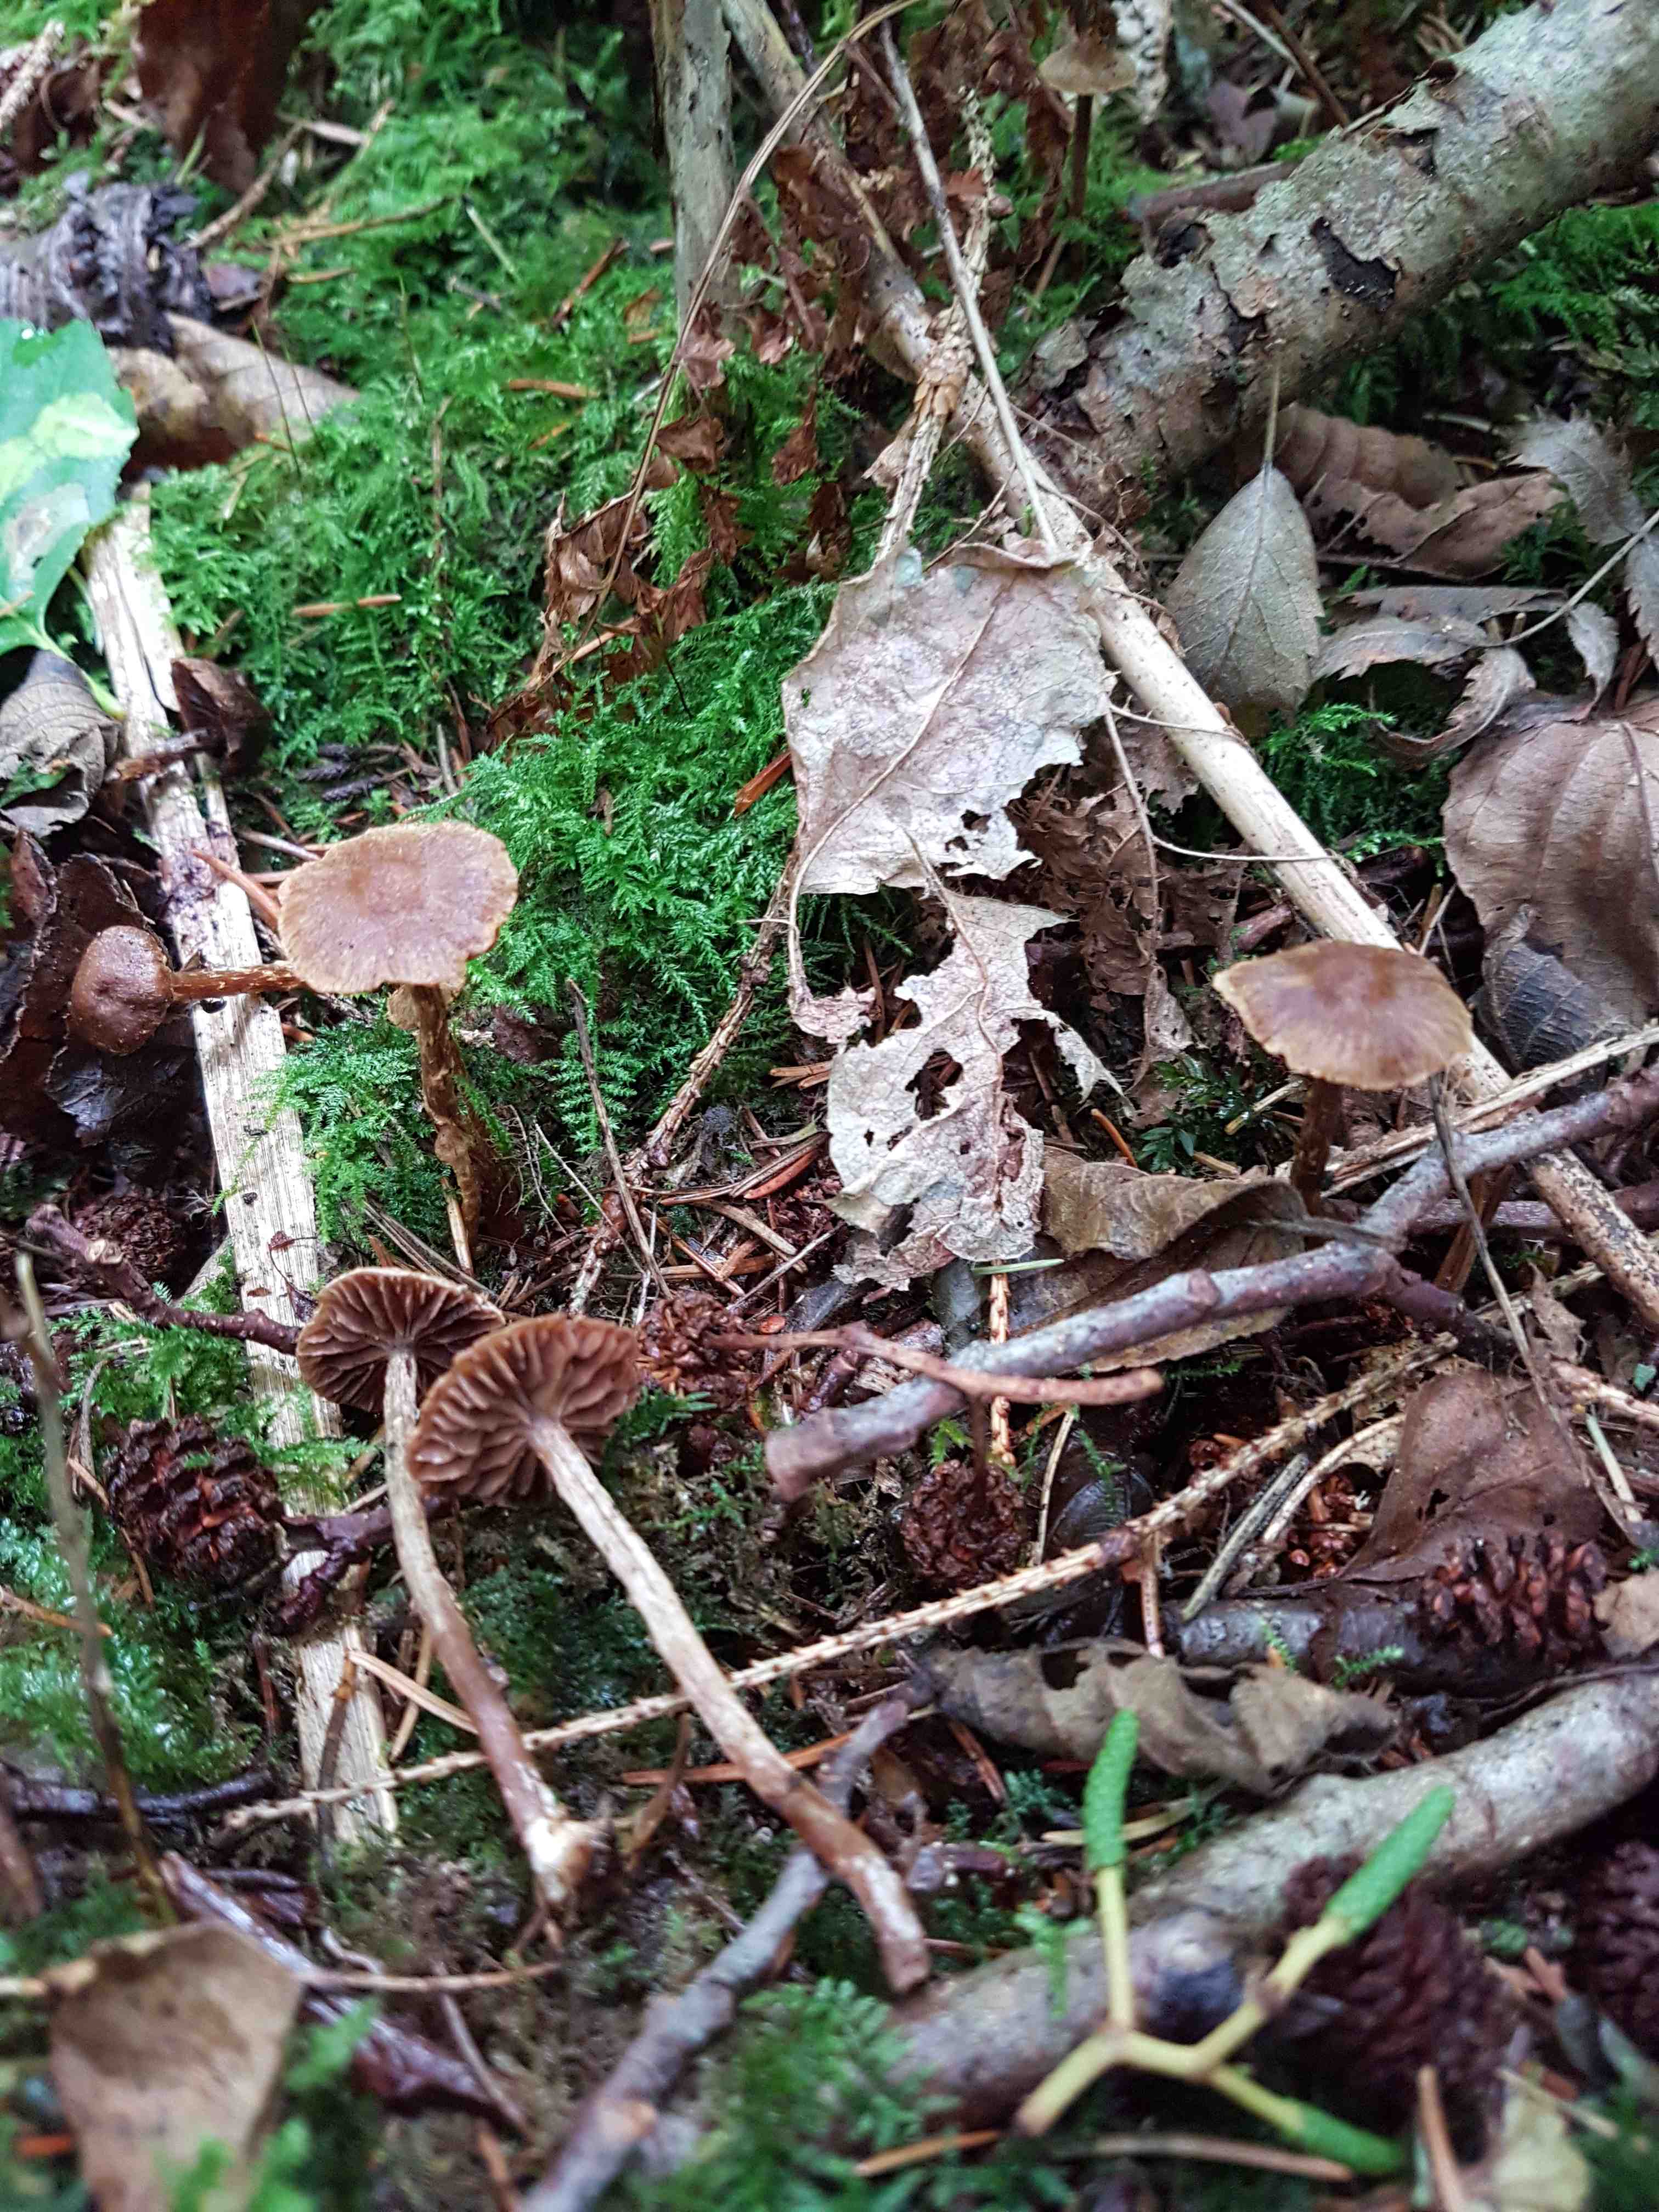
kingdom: Fungi
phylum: Basidiomycota
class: Agaricomycetes
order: Agaricales
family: Cortinariaceae
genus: Cortinarius
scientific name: Cortinarius helvelloides
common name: fjernbladet slørhat
